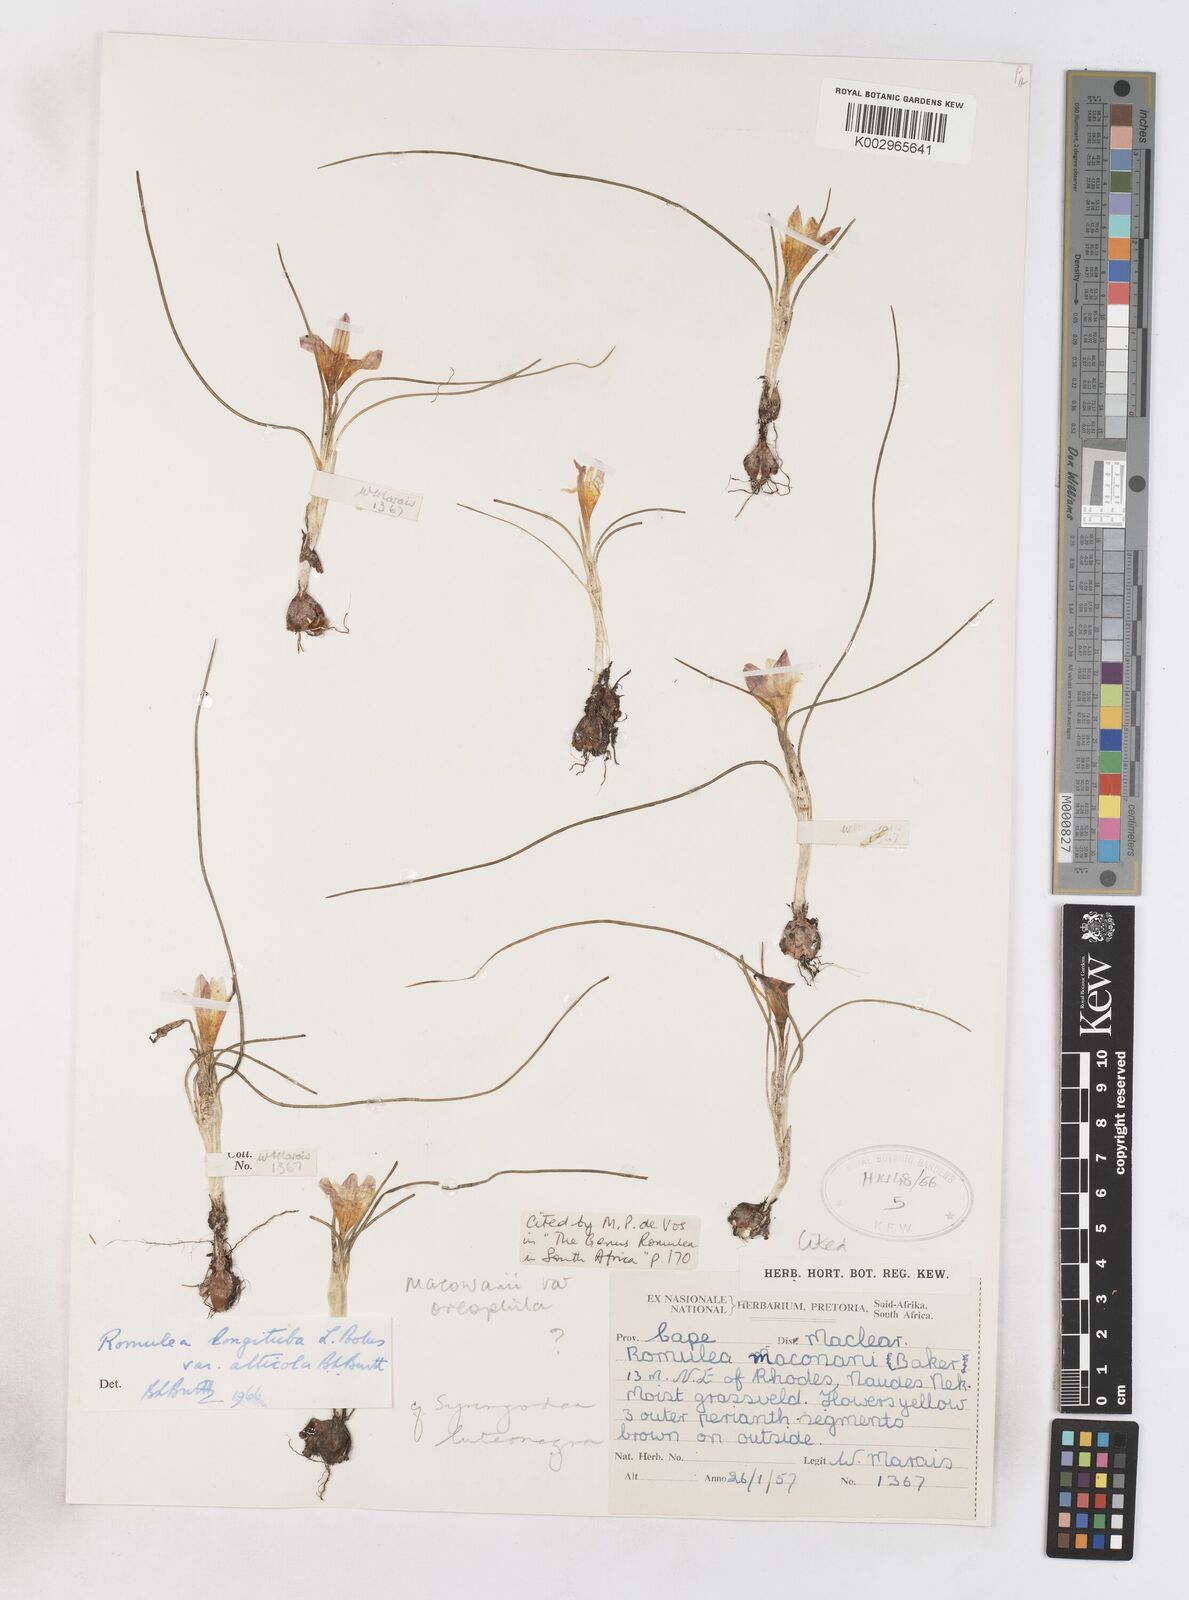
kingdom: Plantae
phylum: Tracheophyta
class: Liliopsida
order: Asparagales
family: Iridaceae
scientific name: Iridaceae
